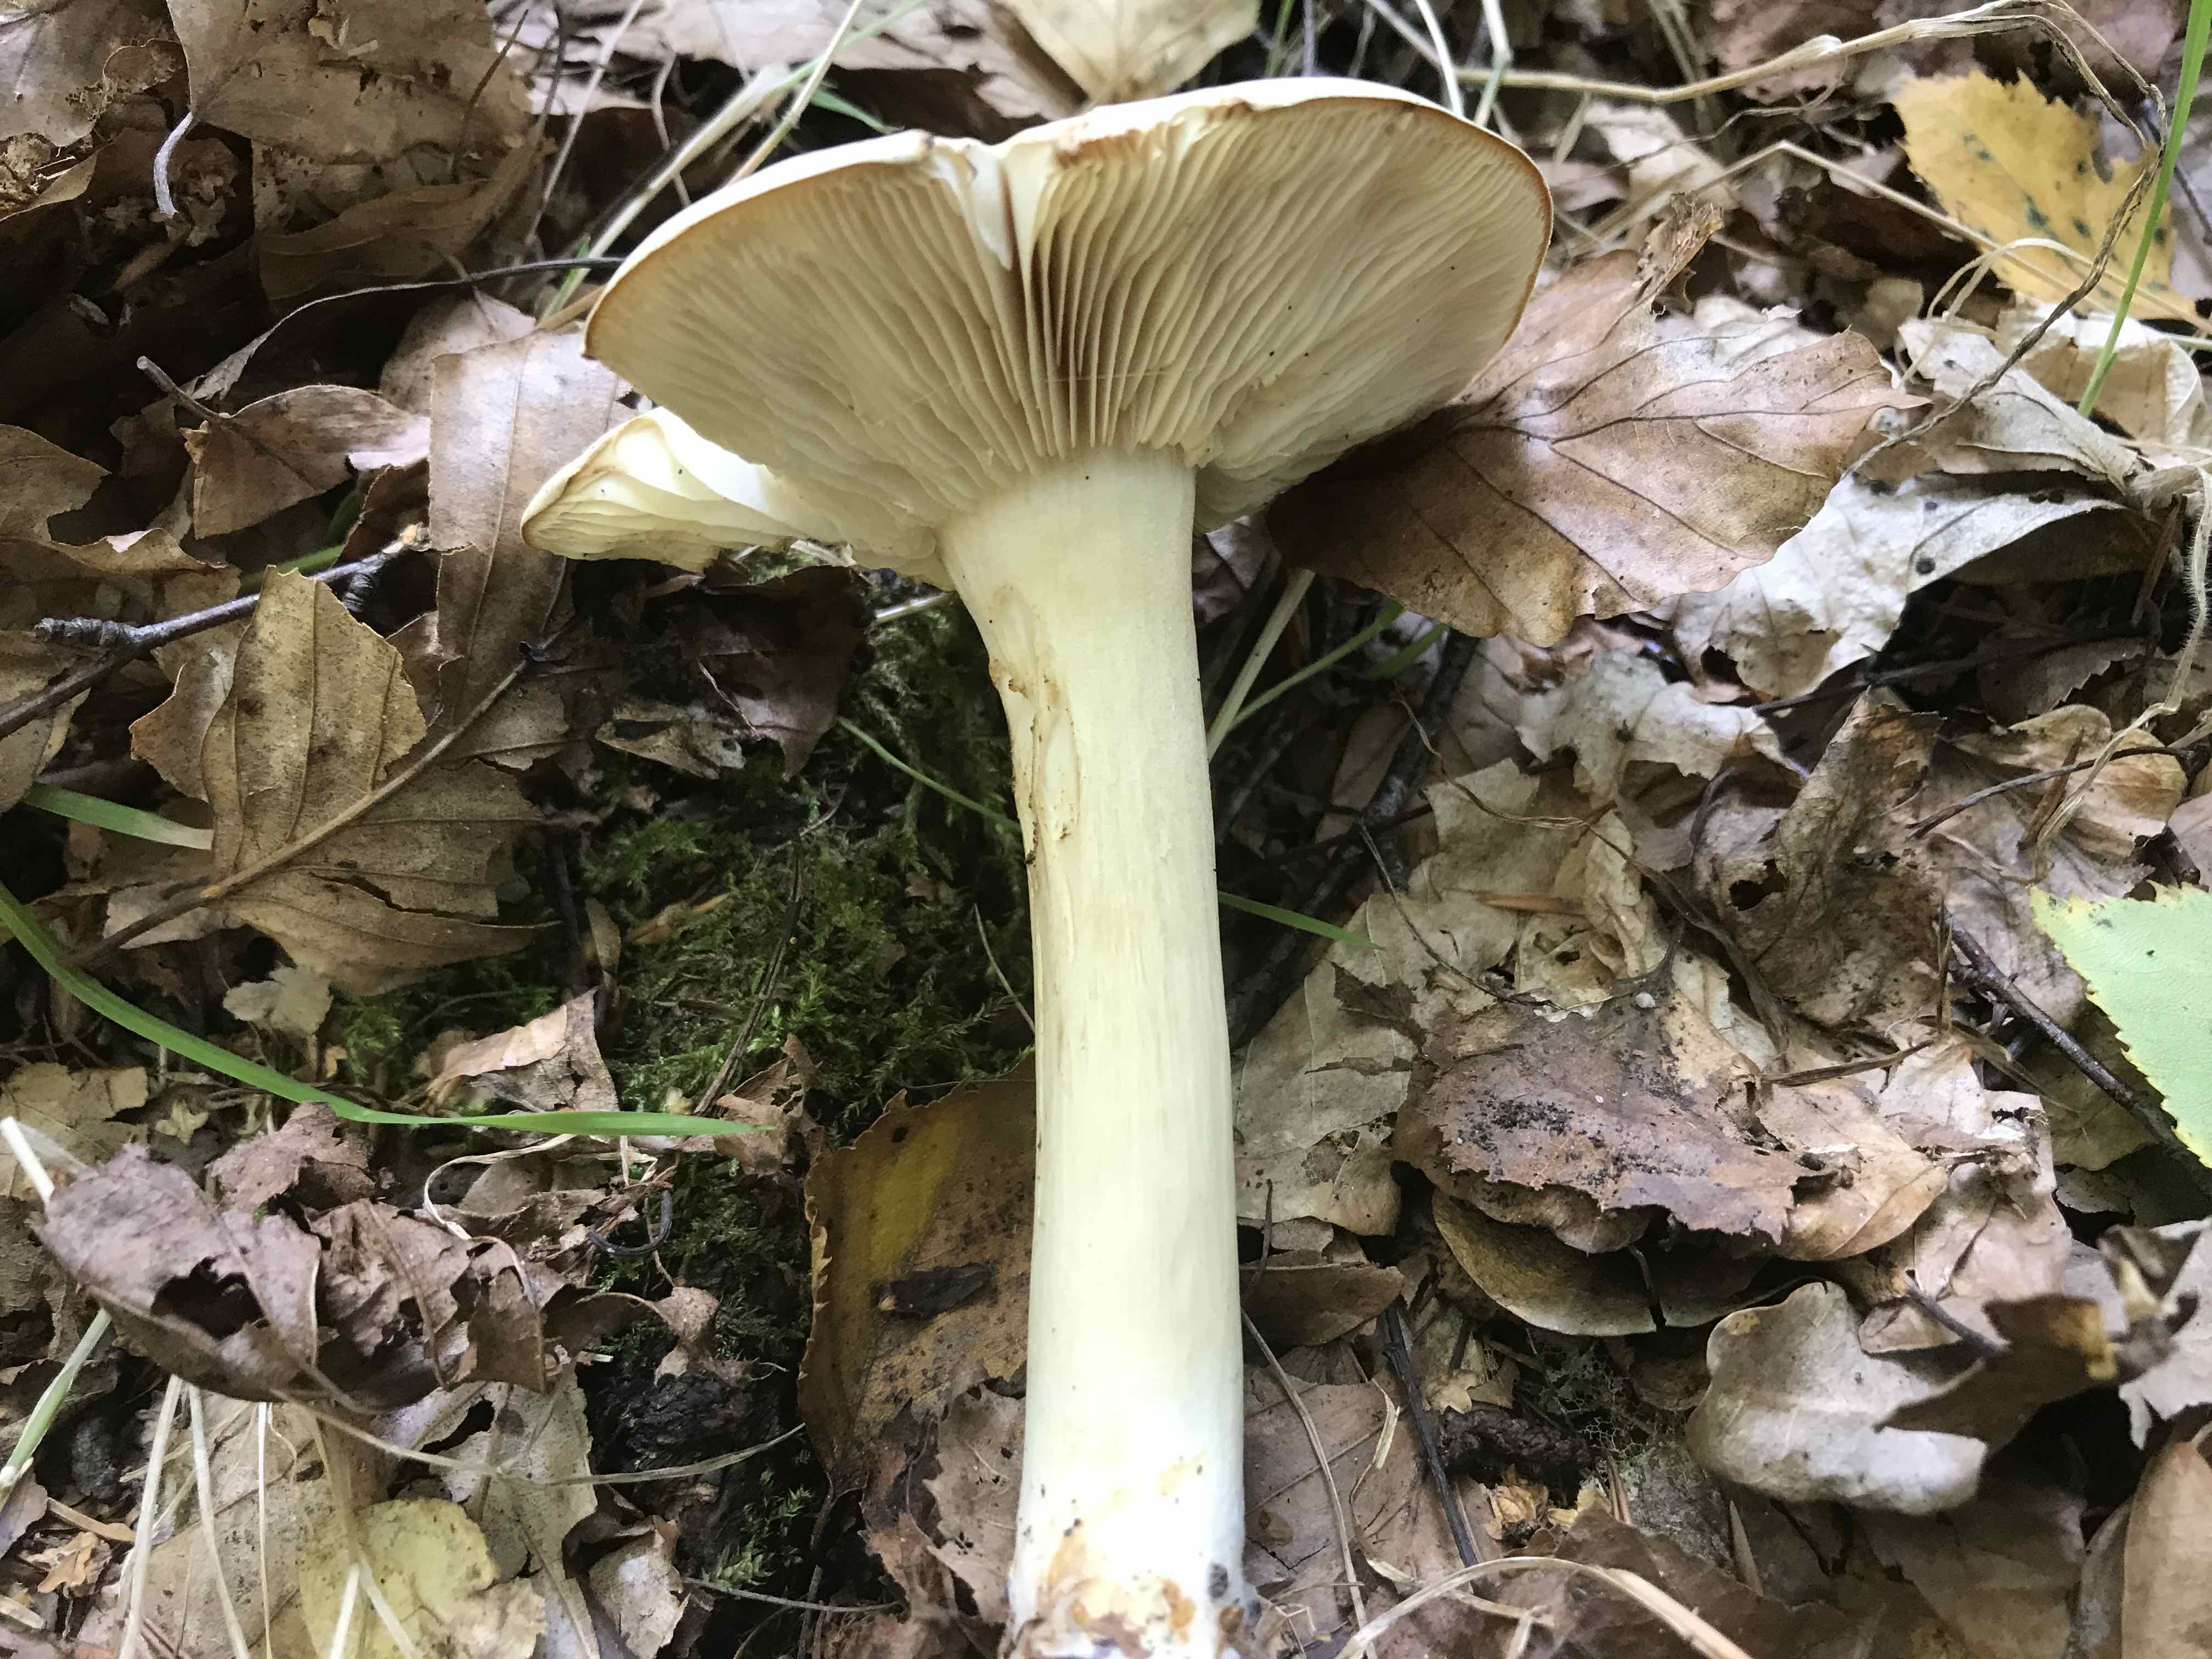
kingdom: Fungi
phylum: Basidiomycota
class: Agaricomycetes
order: Agaricales
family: Tricholomataceae
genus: Tricholoma
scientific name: Tricholoma stiparophyllum
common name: hvid ridderhat
